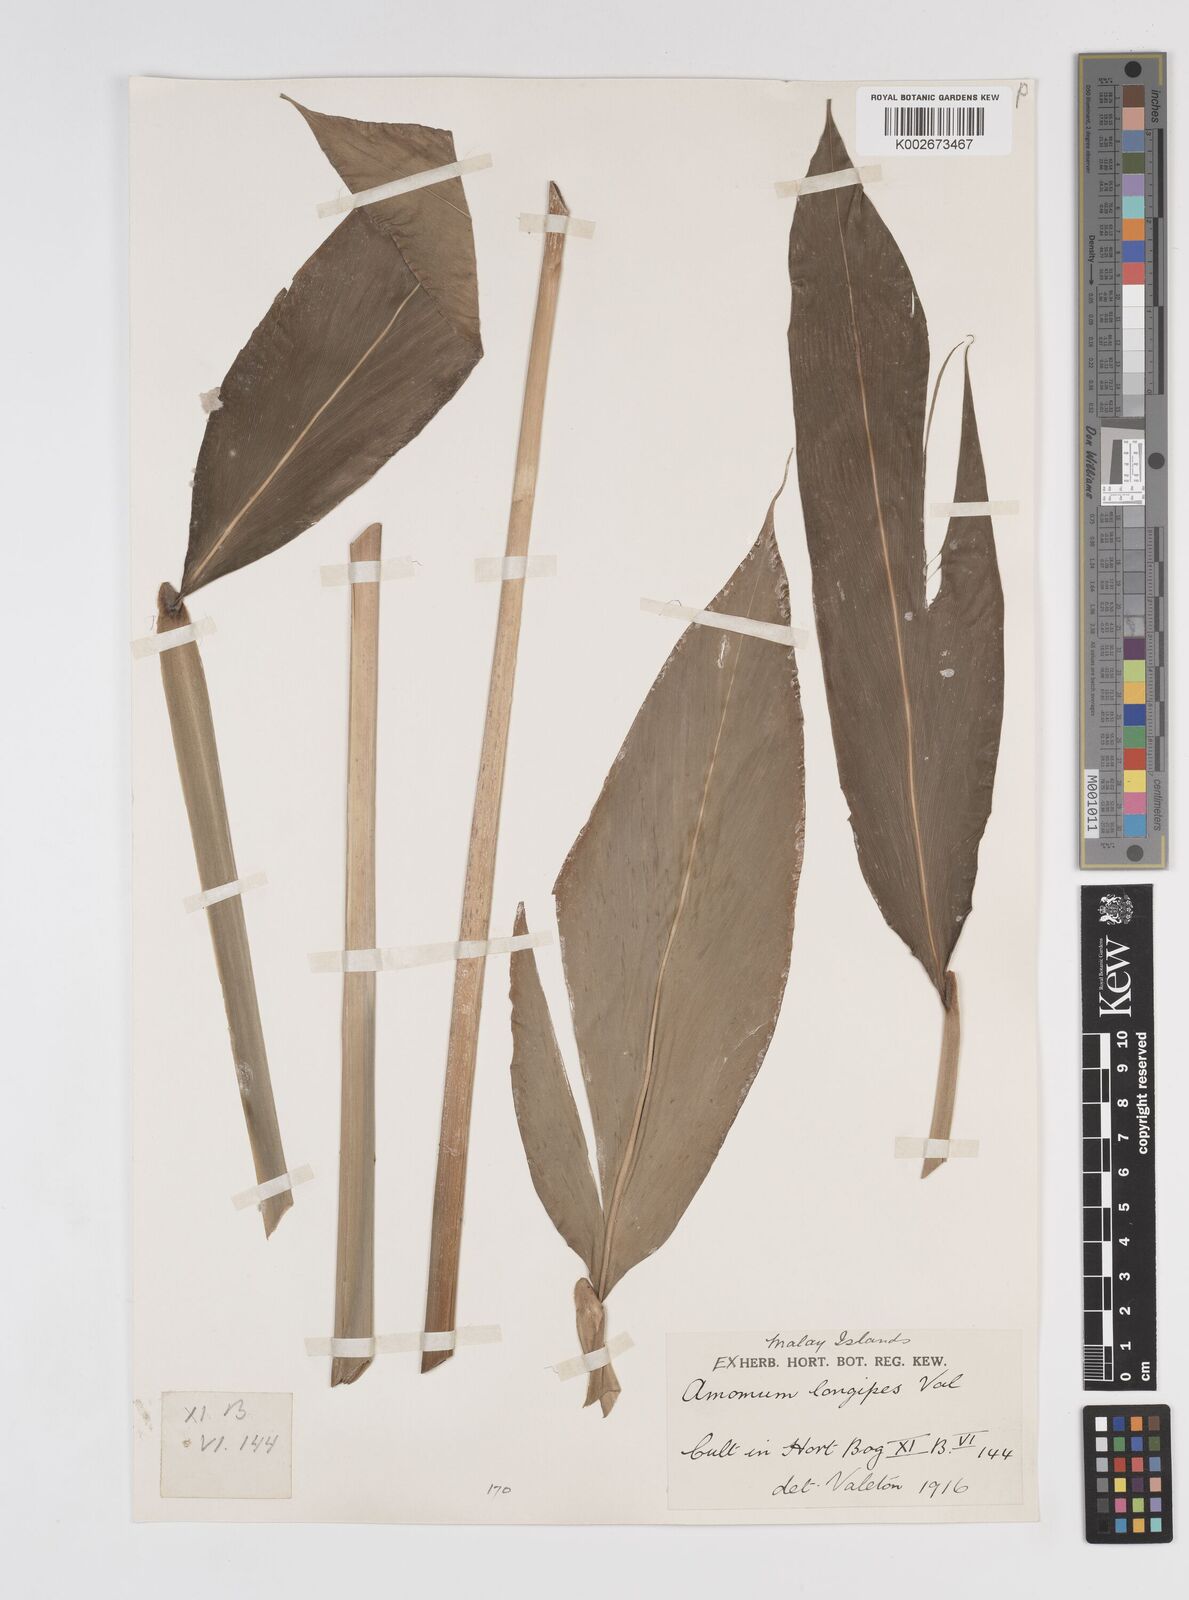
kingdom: Plantae
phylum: Tracheophyta
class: Liliopsida
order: Zingiberales
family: Zingiberaceae
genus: Amomum
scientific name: Amomum longipes
